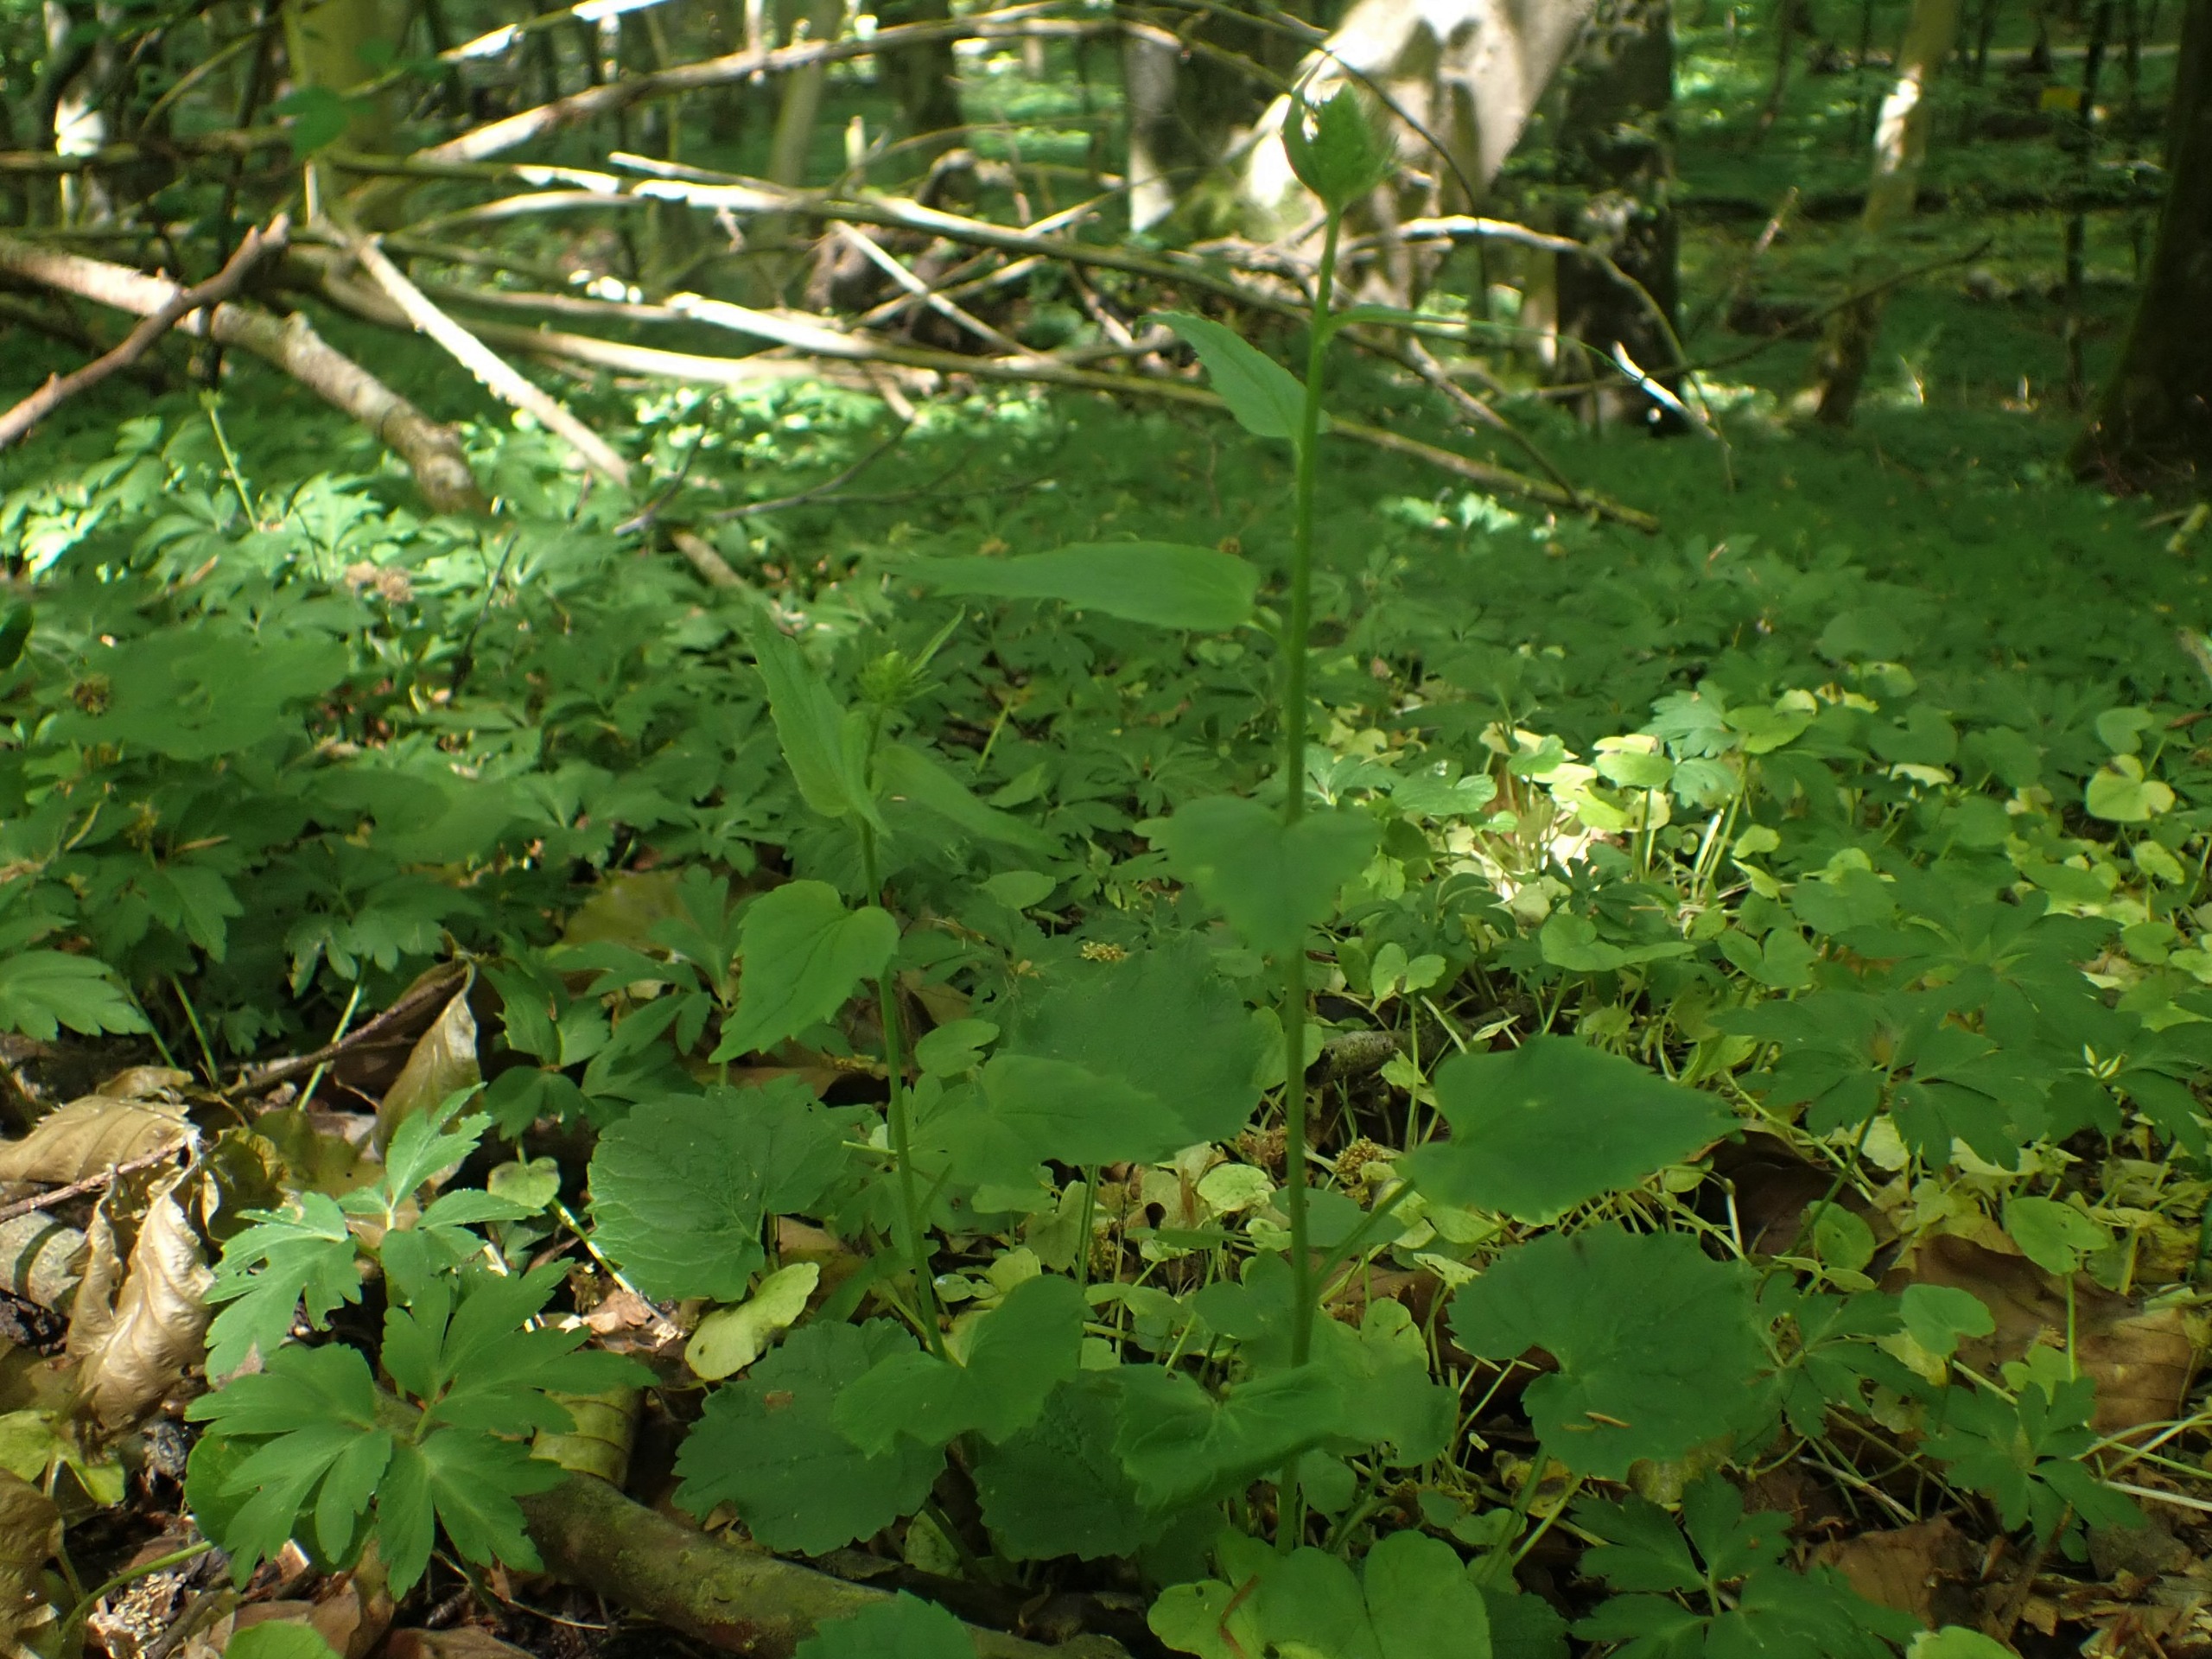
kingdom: Plantae
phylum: Tracheophyta
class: Magnoliopsida
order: Asterales
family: Campanulaceae
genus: Phyteuma
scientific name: Phyteuma spicatum
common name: Aks-rapunsel
